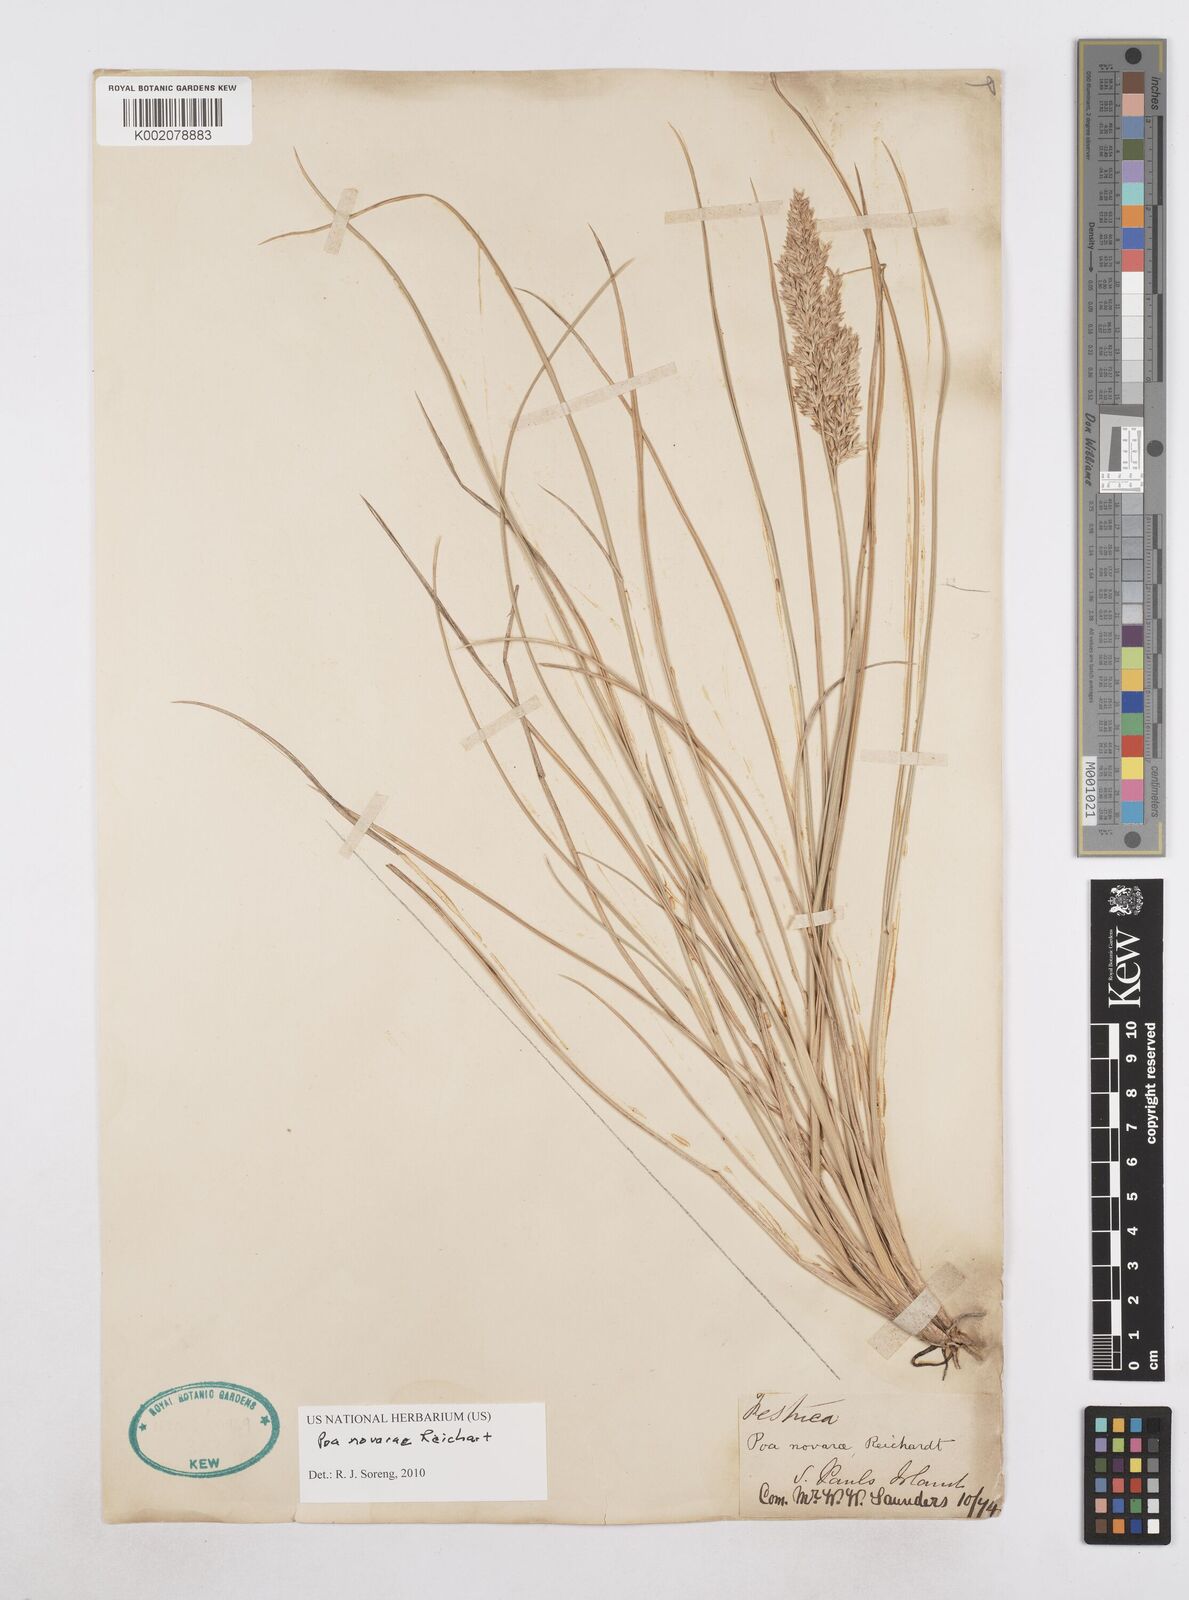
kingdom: Plantae
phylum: Tracheophyta
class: Liliopsida
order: Poales
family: Poaceae
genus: Poa
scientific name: Poa novarae
